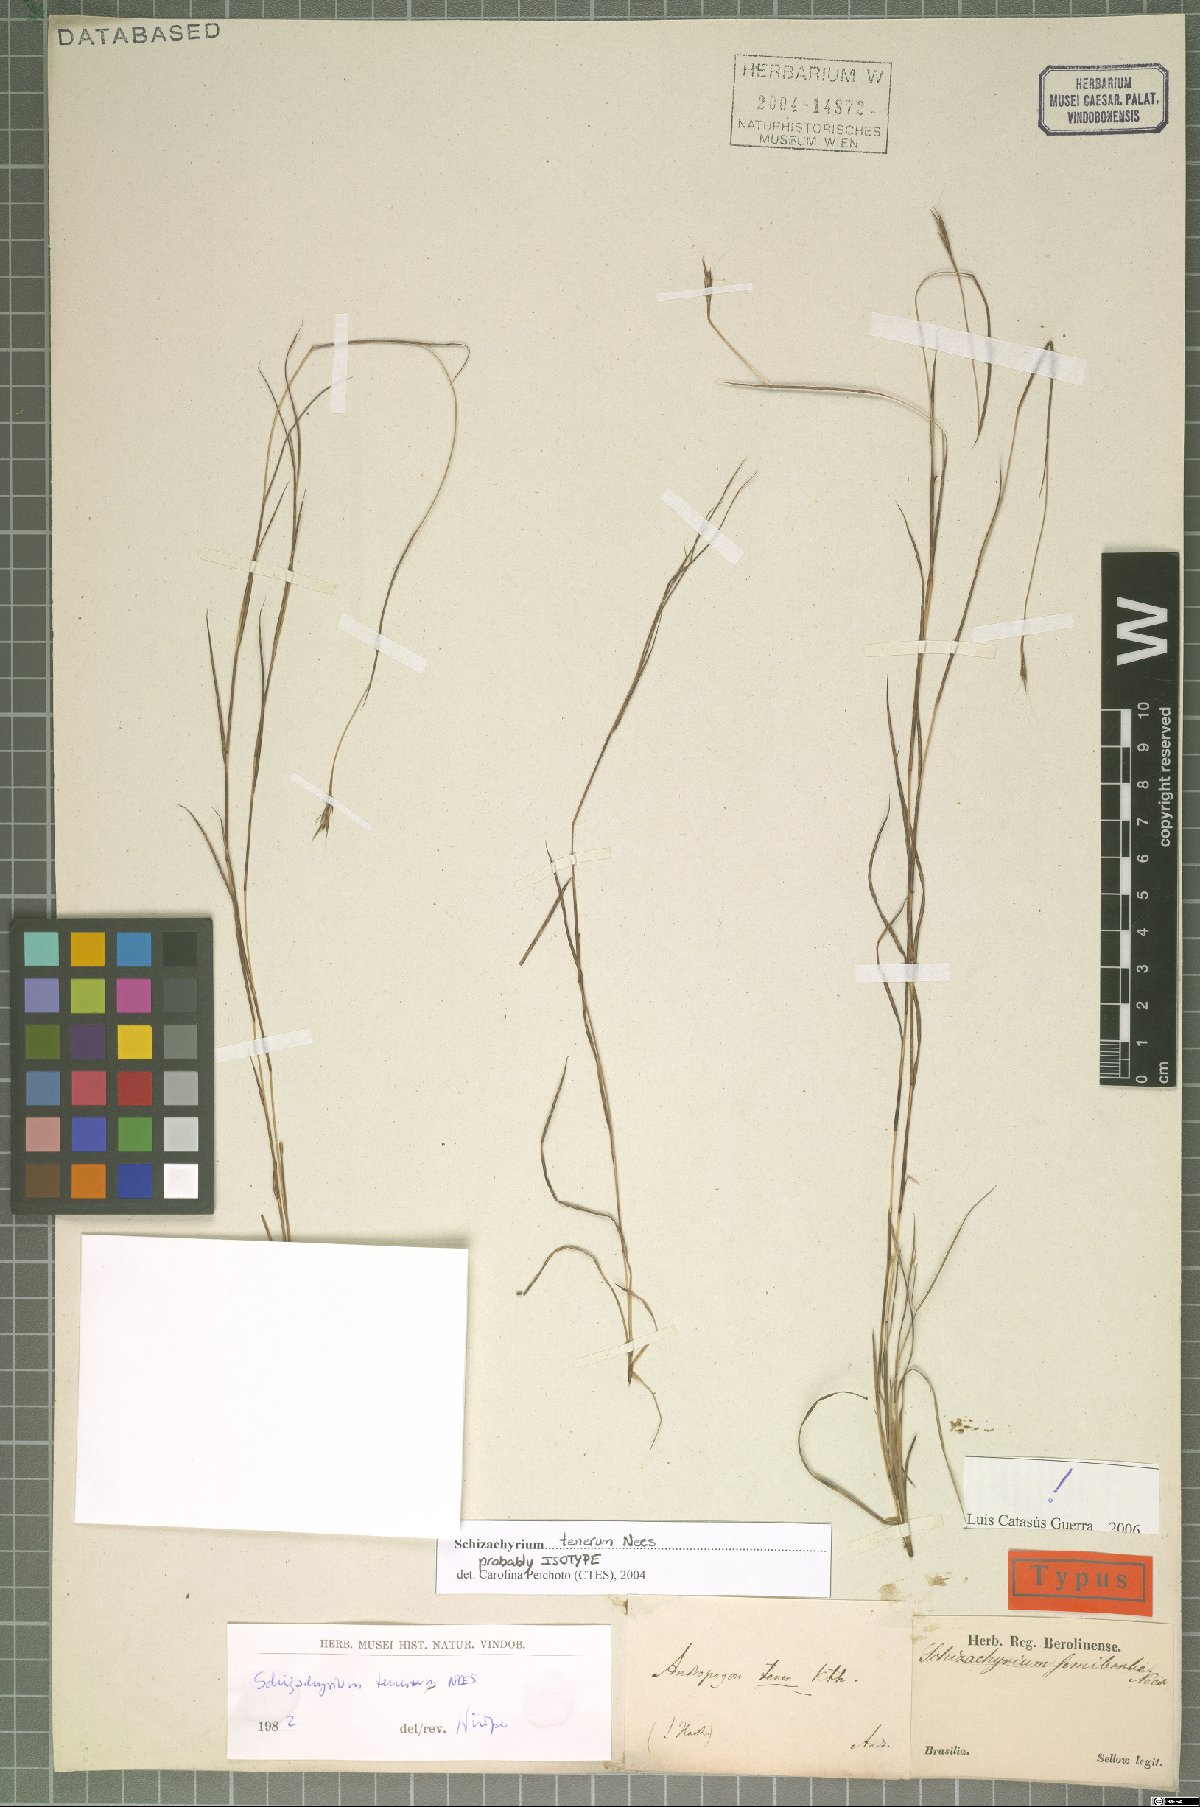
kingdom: Plantae
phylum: Tracheophyta
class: Liliopsida
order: Poales
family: Poaceae
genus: Andropogon
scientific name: Andropogon tener
